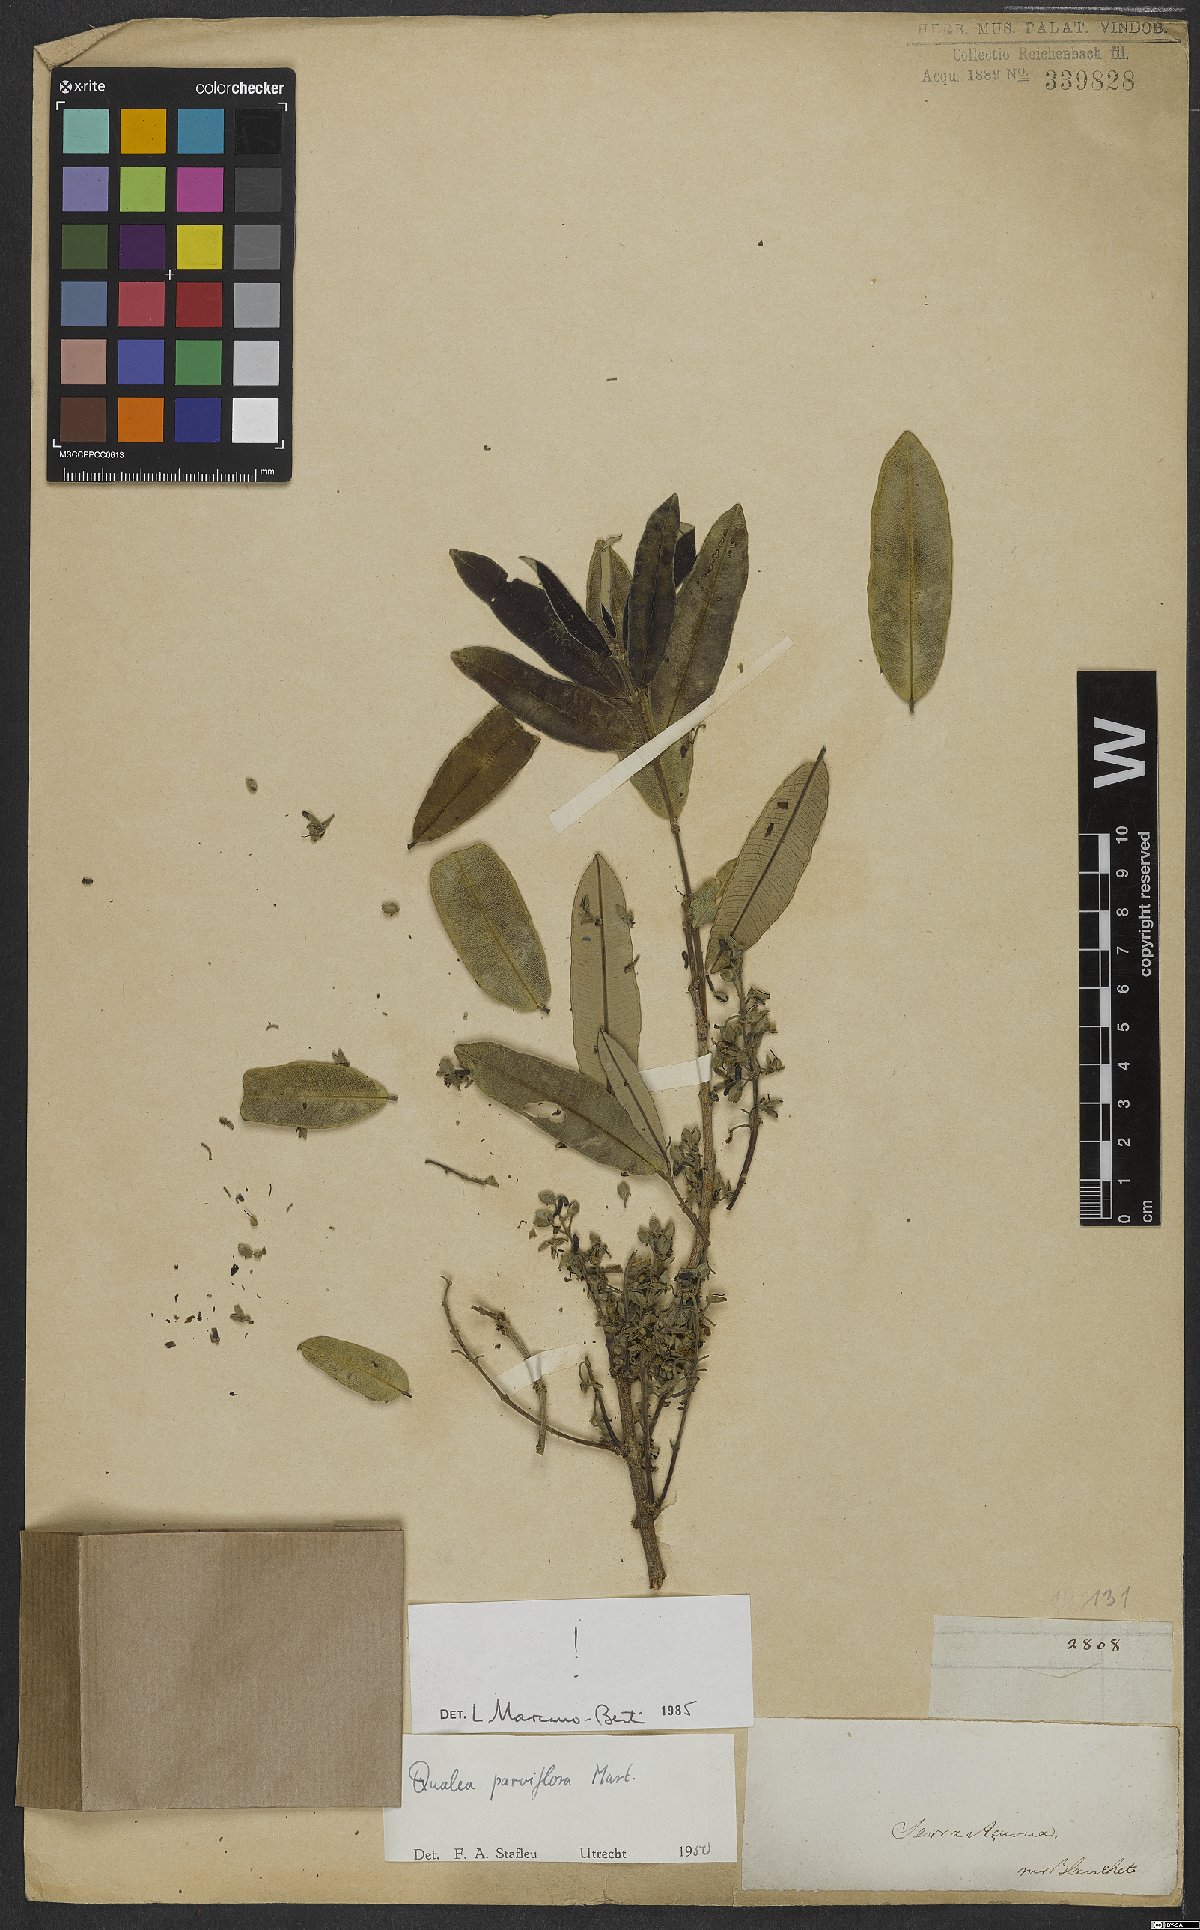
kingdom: Plantae
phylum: Tracheophyta
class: Magnoliopsida
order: Myrtales
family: Vochysiaceae
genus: Qualea
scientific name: Qualea parviflora
